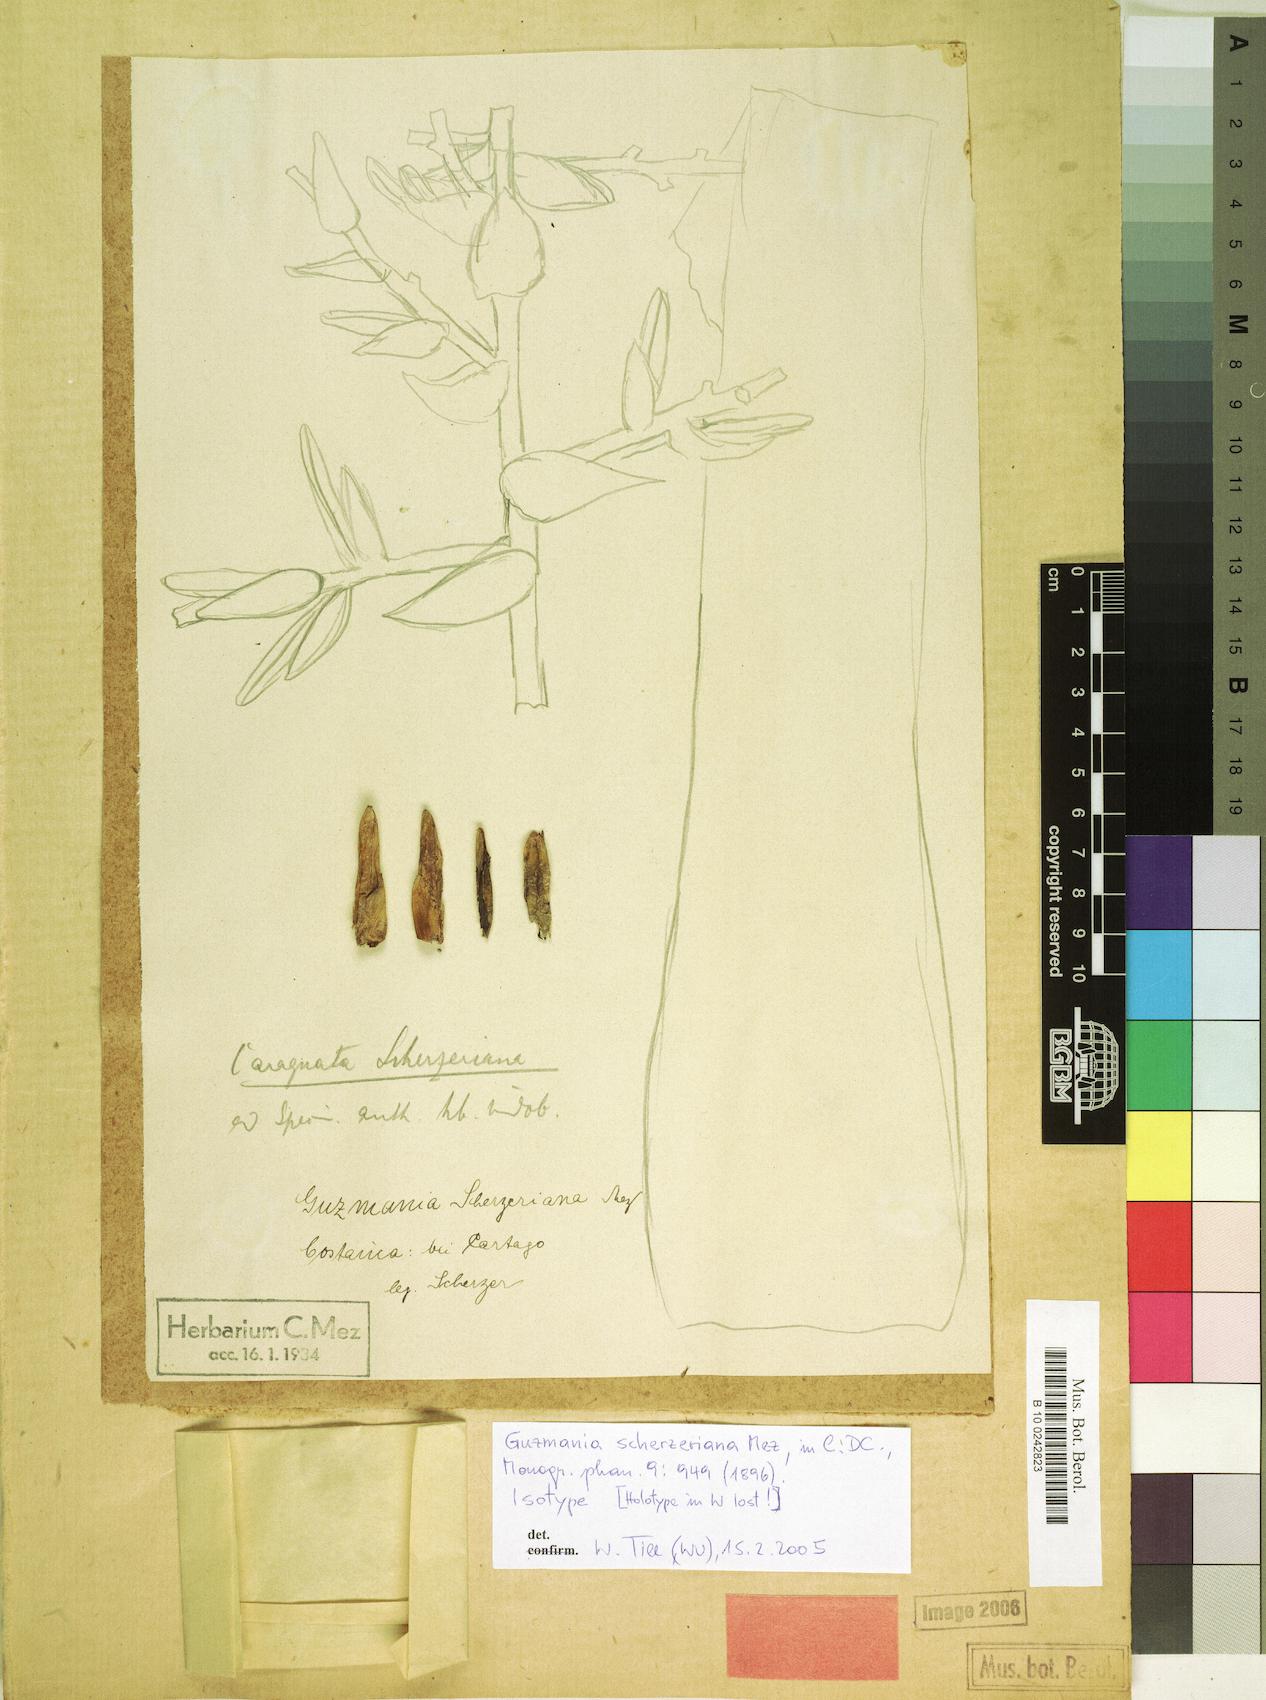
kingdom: Plantae
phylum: Tracheophyta
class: Liliopsida
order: Poales
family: Bromeliaceae
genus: Guzmania
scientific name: Guzmania scherzeriana
